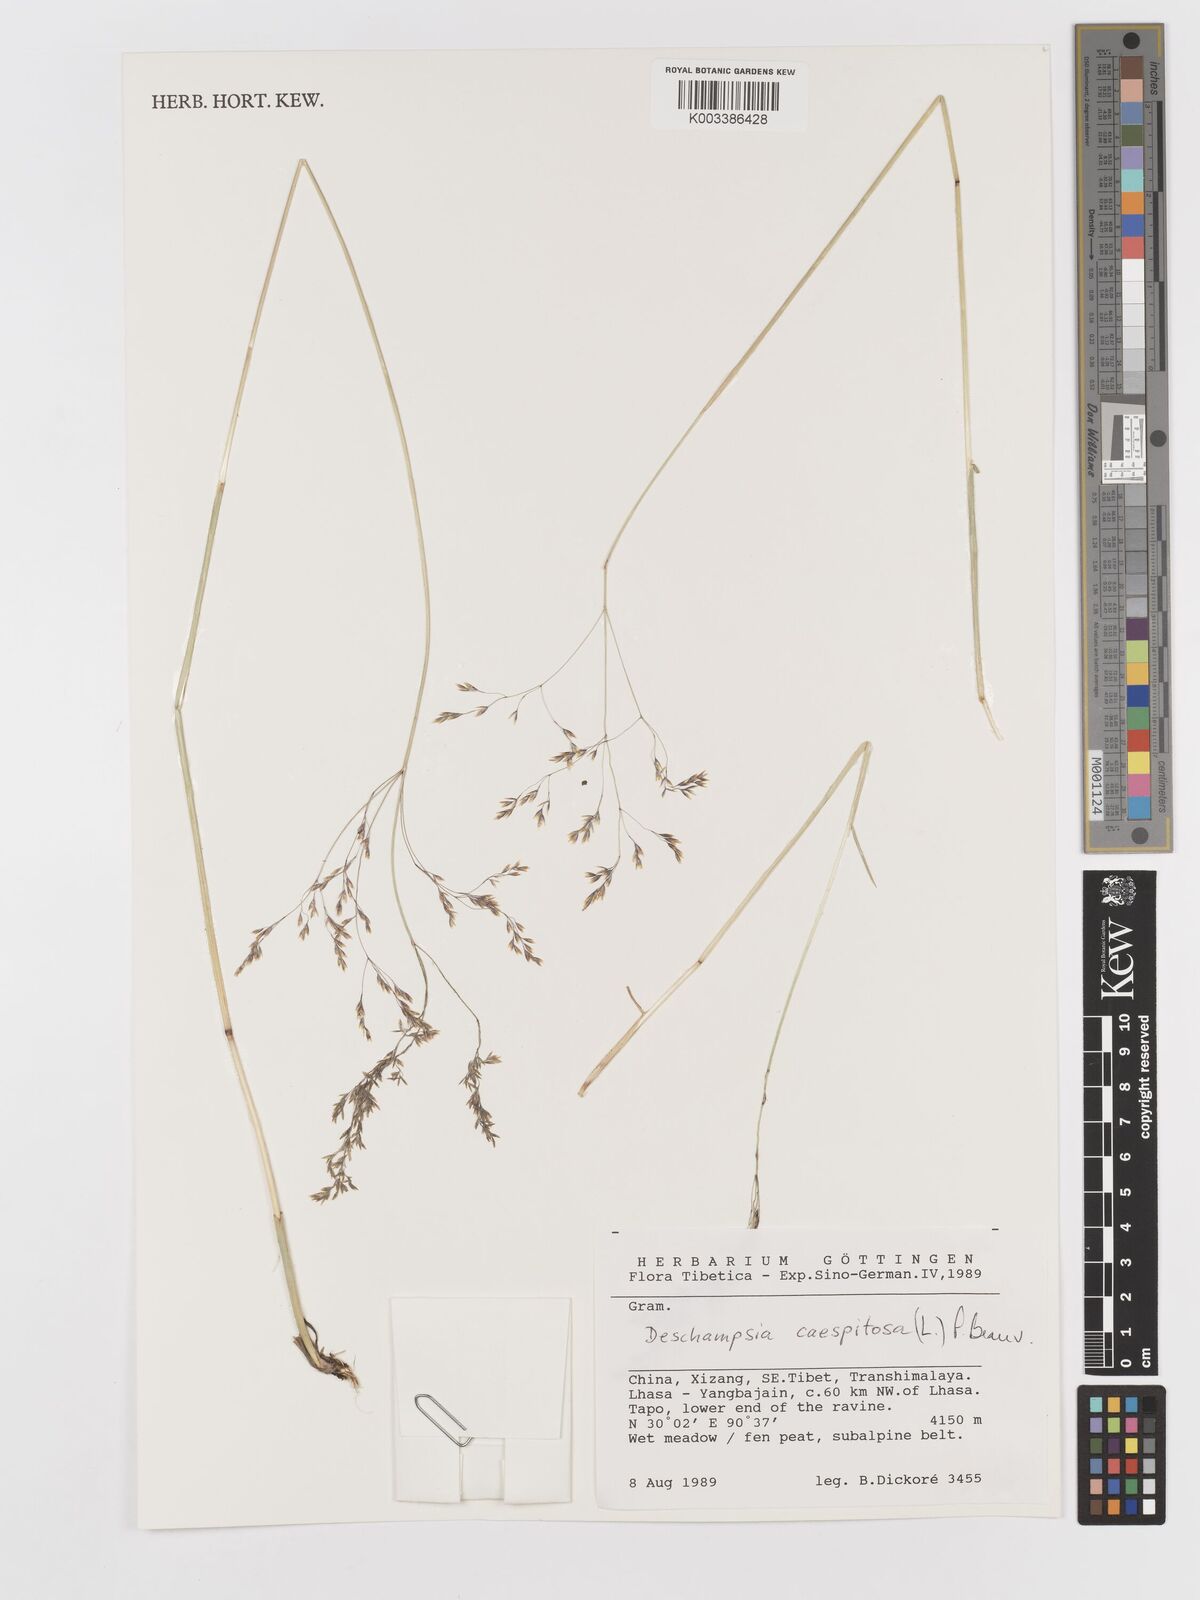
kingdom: Plantae
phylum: Tracheophyta
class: Liliopsida
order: Poales
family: Poaceae
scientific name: Poaceae
